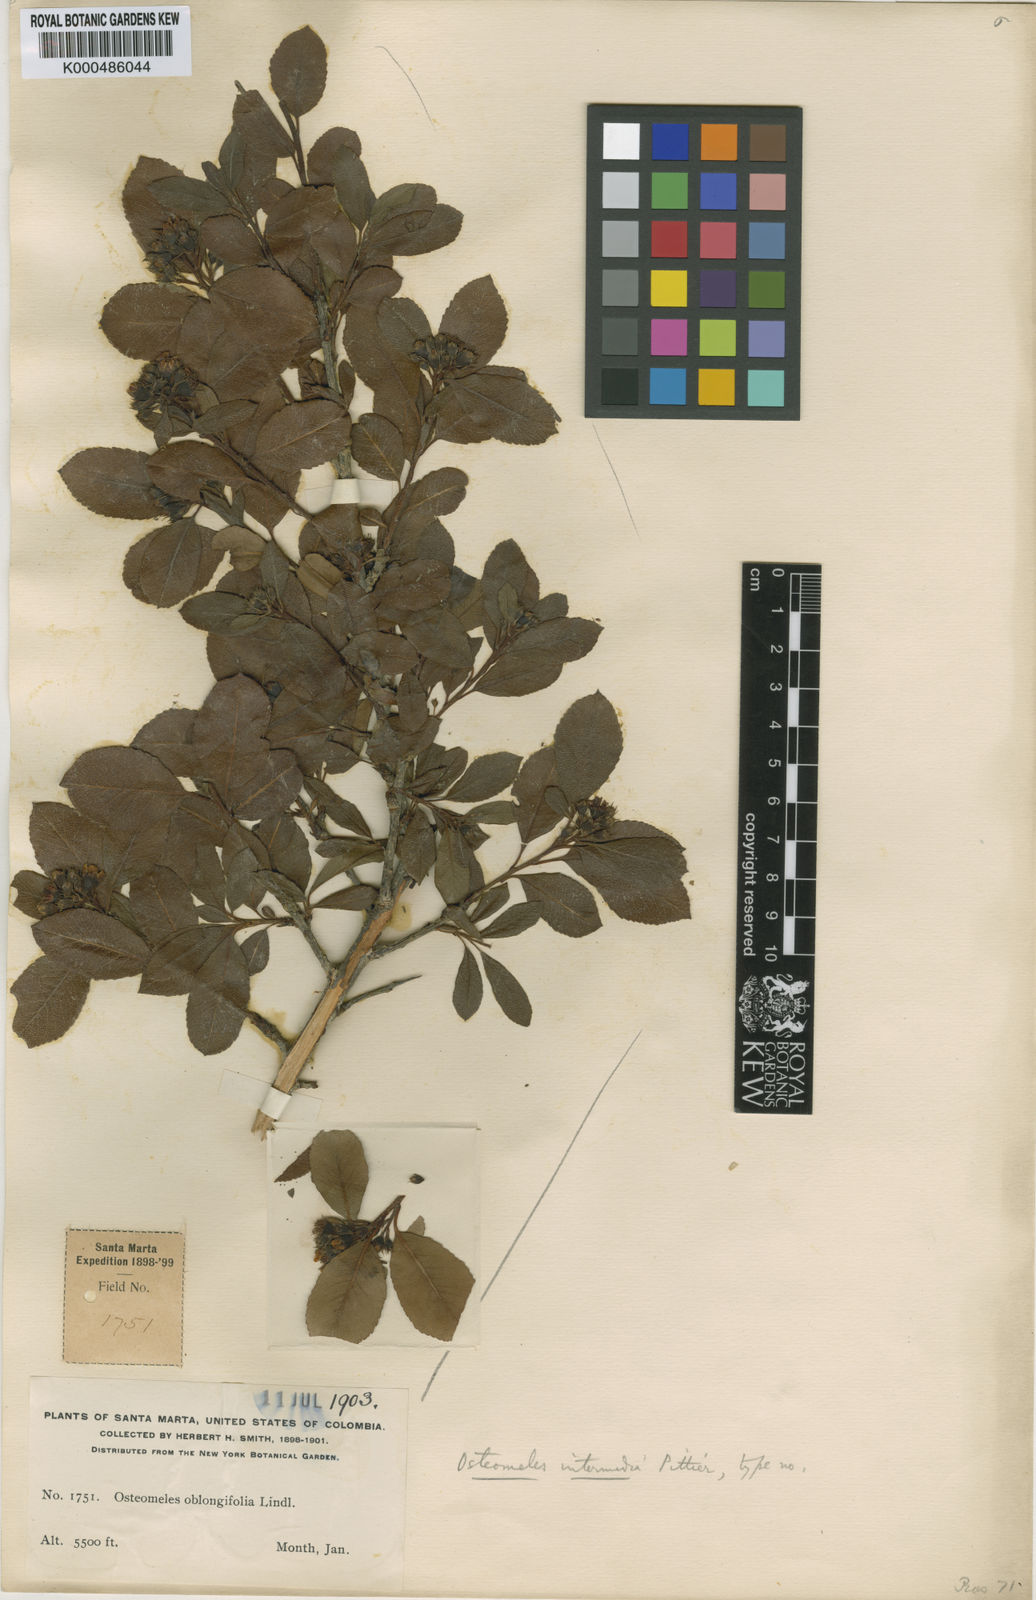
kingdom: Plantae
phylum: Tracheophyta
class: Magnoliopsida
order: Rosales
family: Rosaceae
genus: Hesperomeles
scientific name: Hesperomeles
